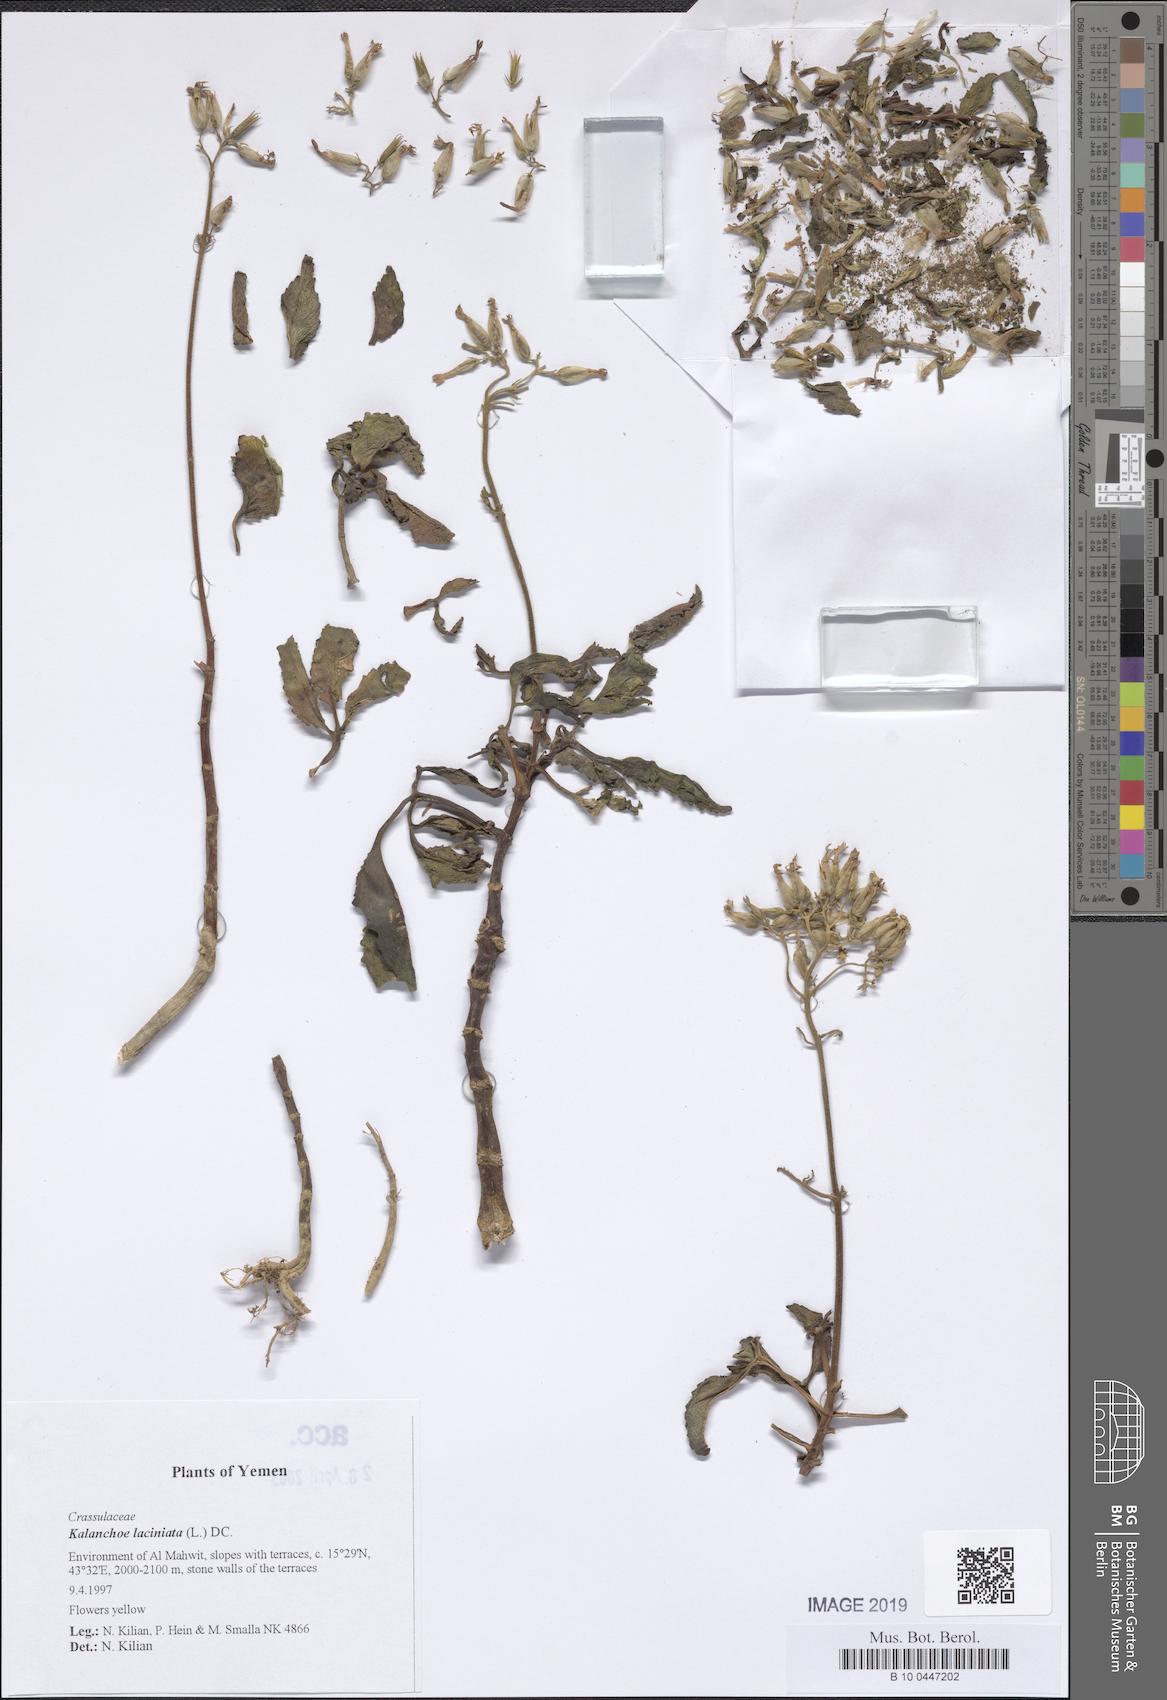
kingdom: Plantae
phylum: Tracheophyta
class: Magnoliopsida
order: Saxifragales
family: Crassulaceae
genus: Kalanchoe
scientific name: Kalanchoe laciniata
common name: Christmastree plant
